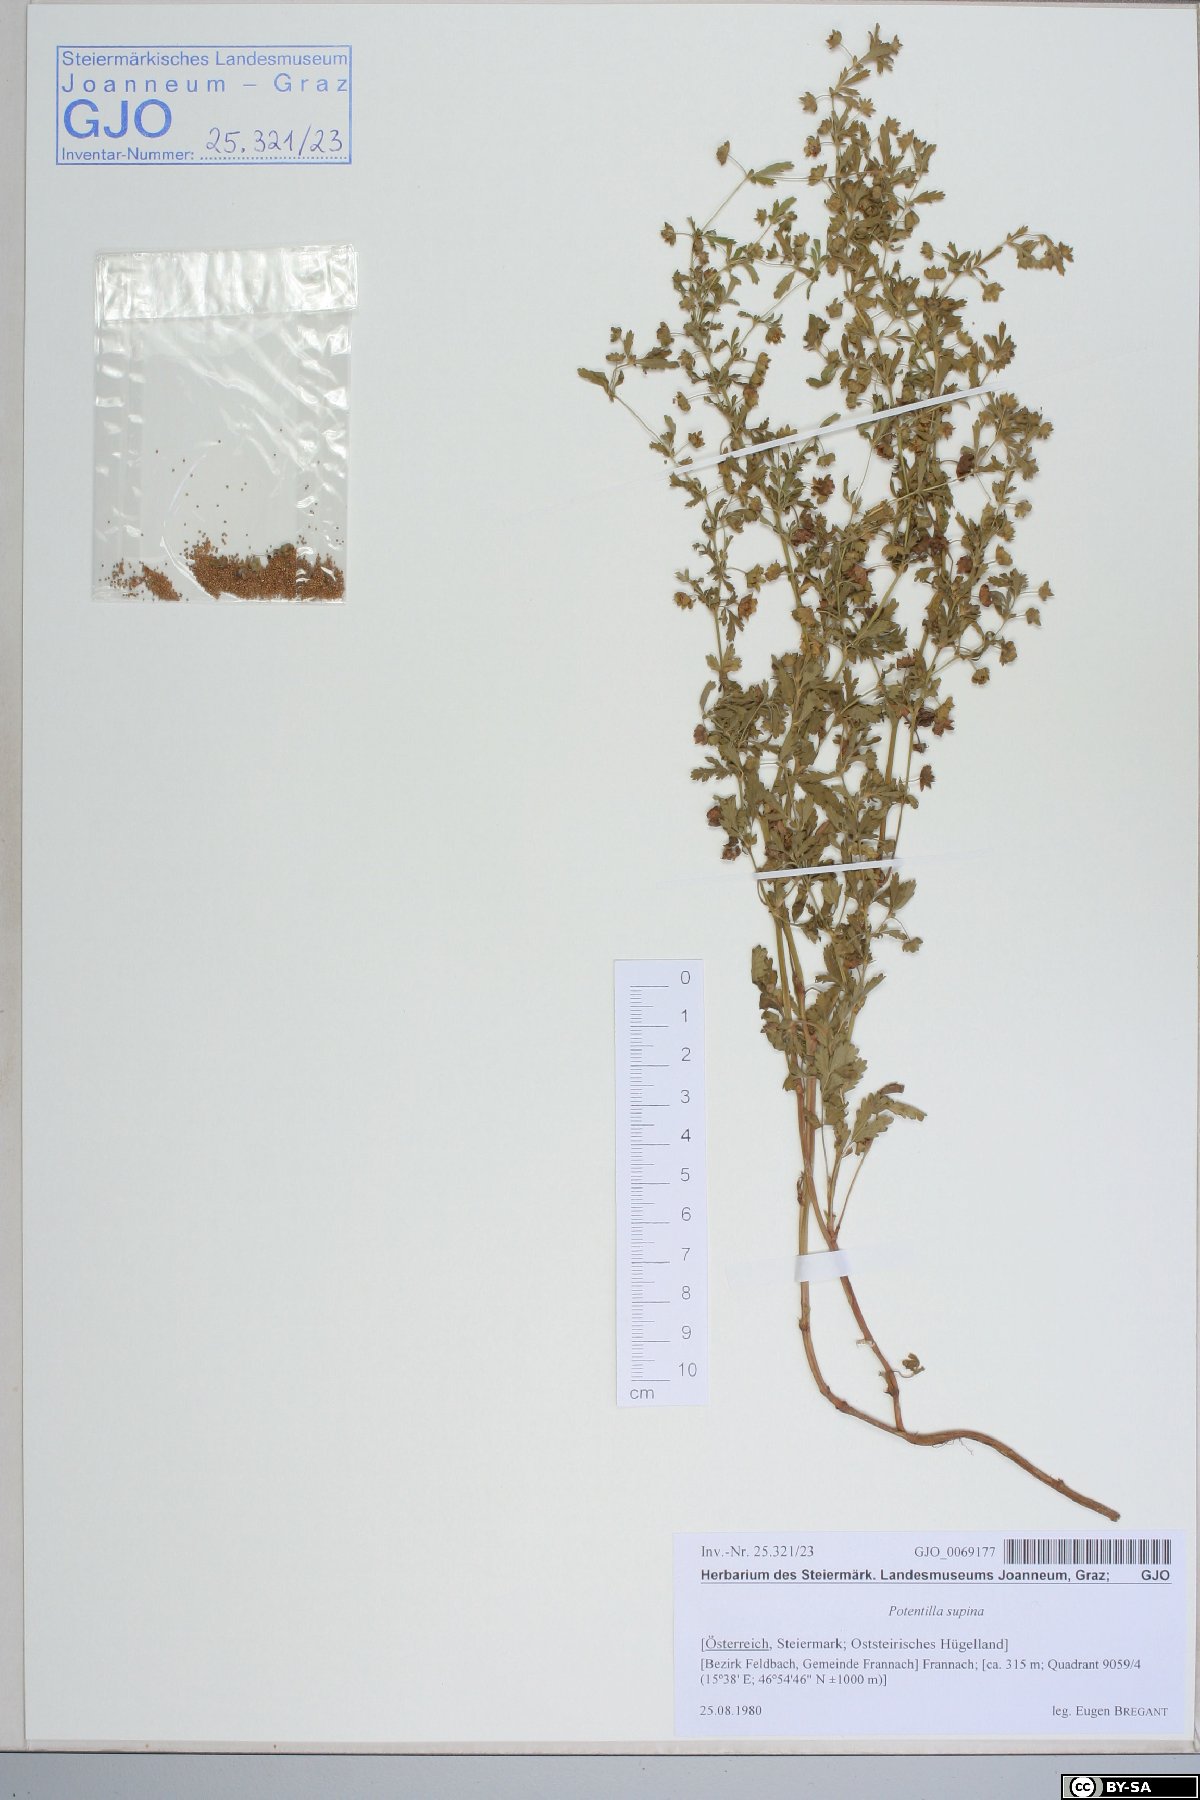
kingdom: Plantae
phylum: Tracheophyta
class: Magnoliopsida
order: Rosales
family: Rosaceae
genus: Potentilla
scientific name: Potentilla supina
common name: Prostrate cinquefoil
